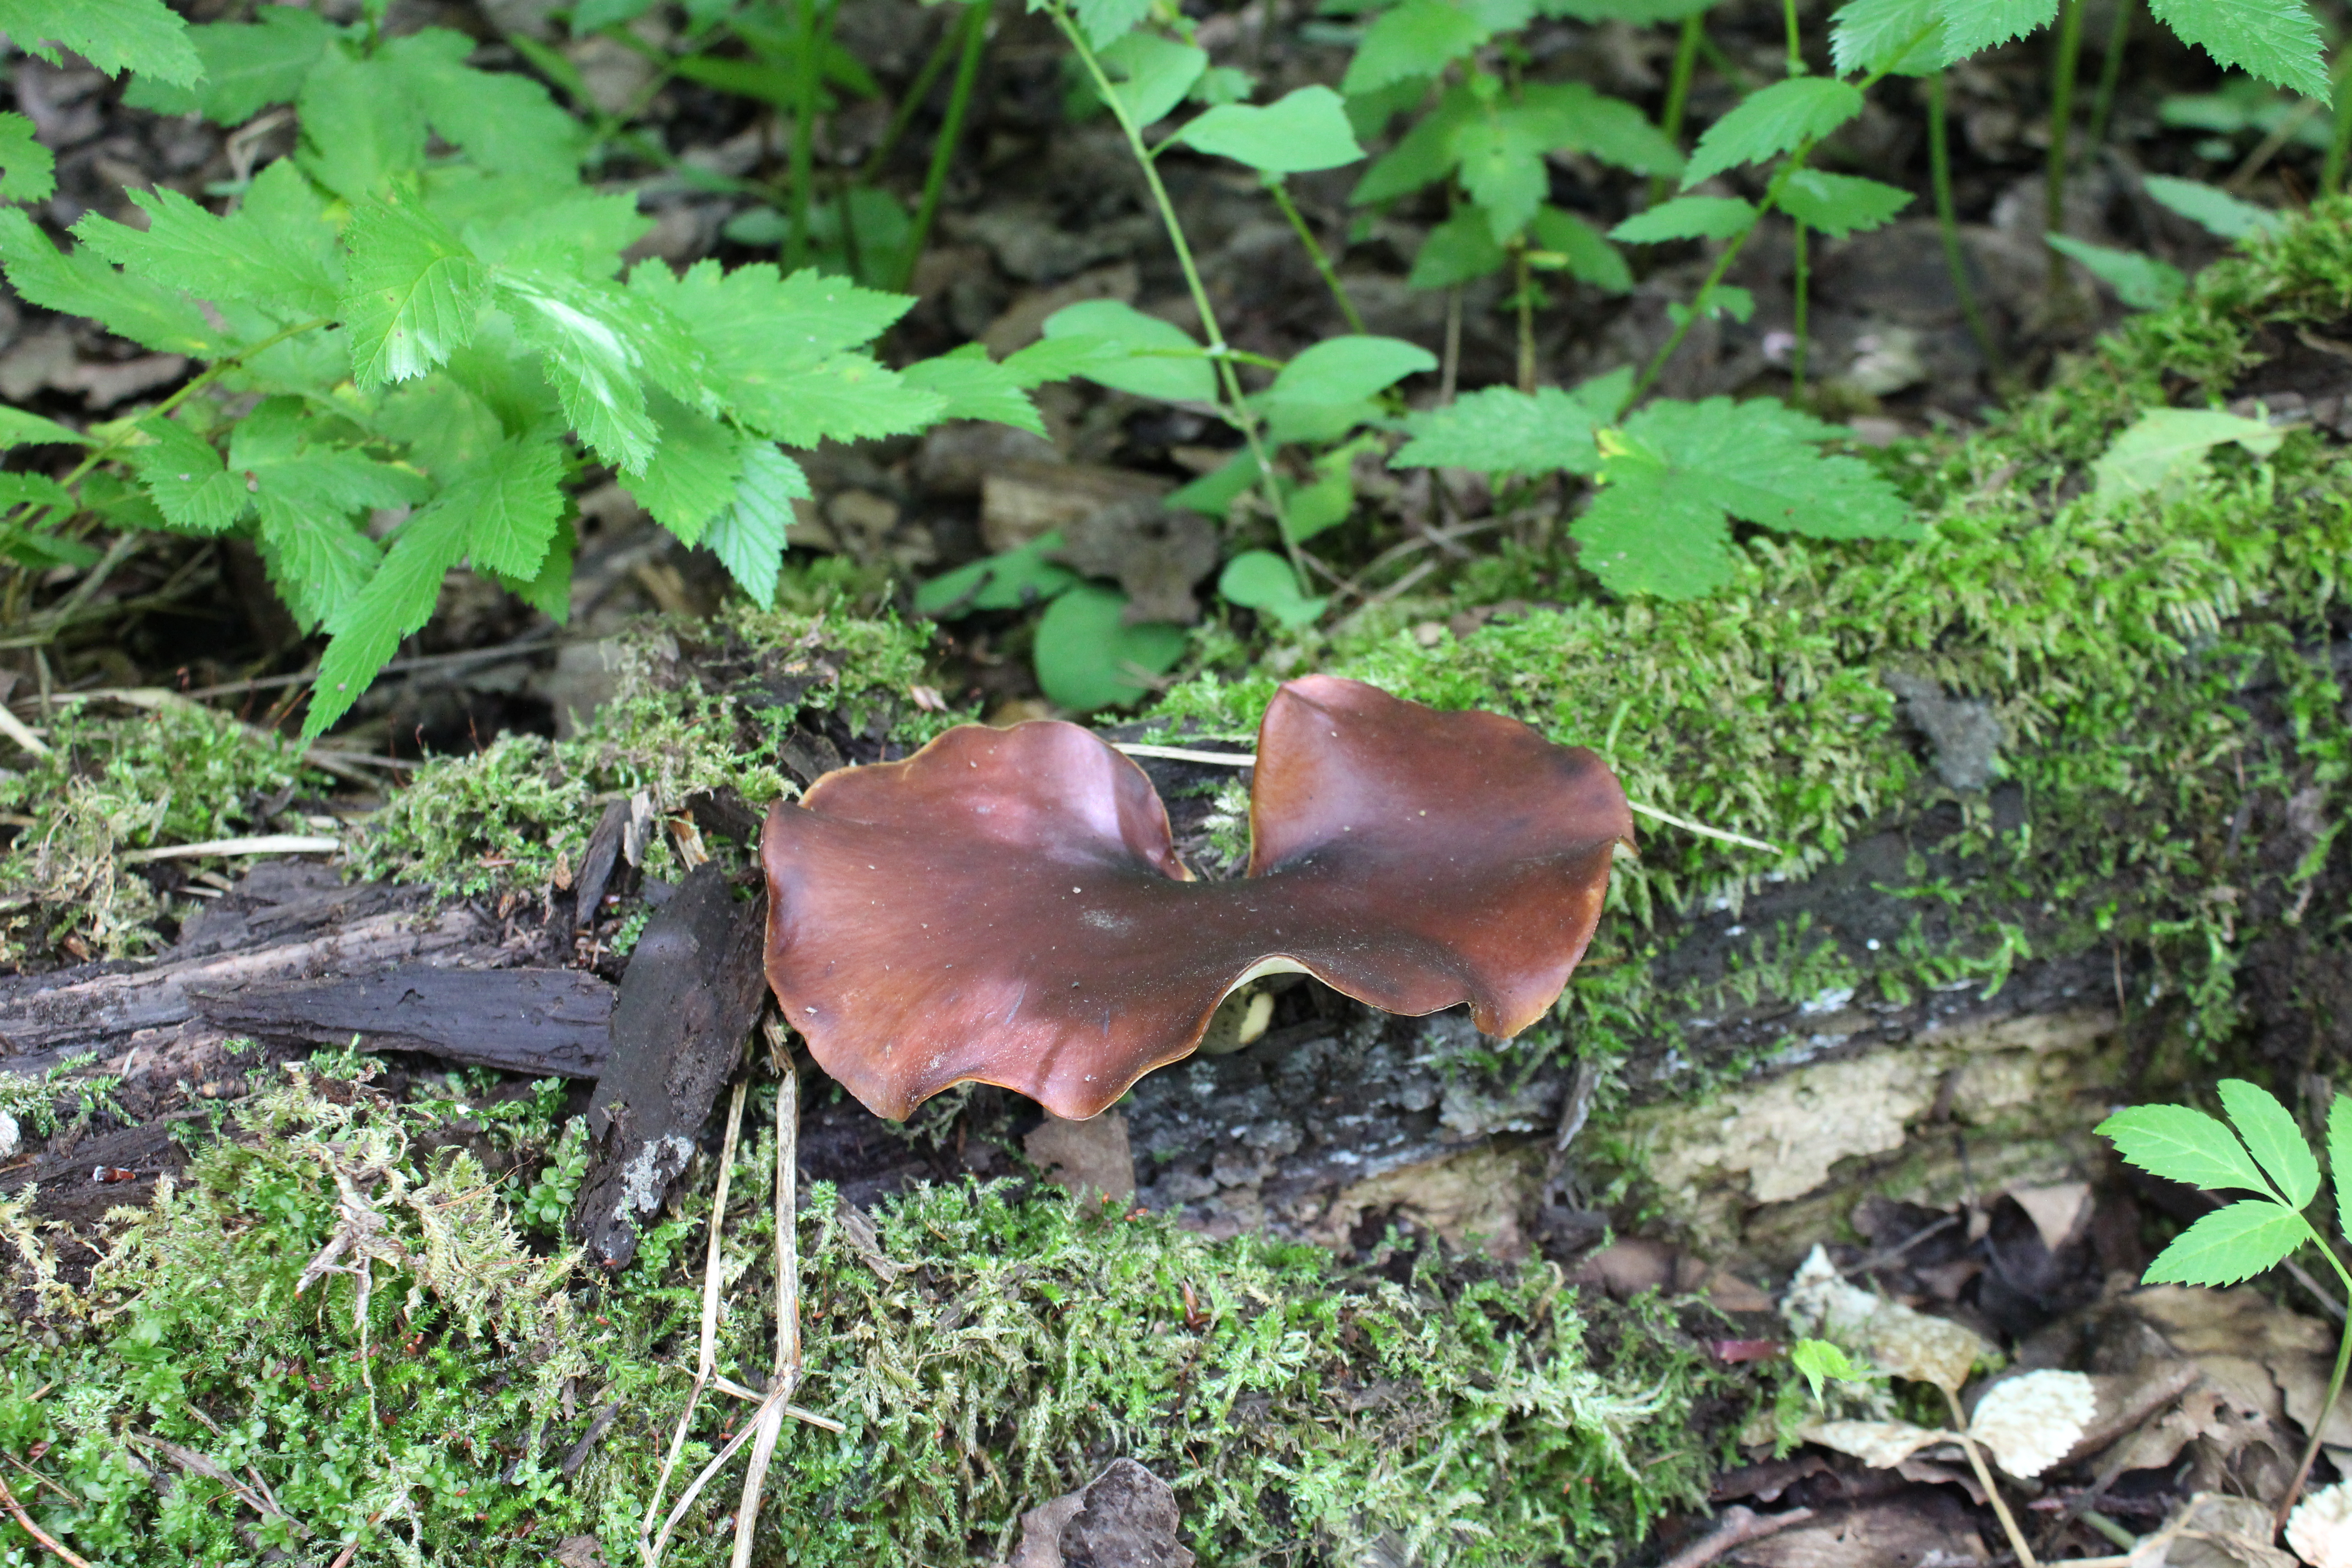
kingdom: Fungi
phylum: Basidiomycota
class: Agaricomycetes
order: Polyporales
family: Polyporaceae
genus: Picipes
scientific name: Picipes badius
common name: Bay polypore
